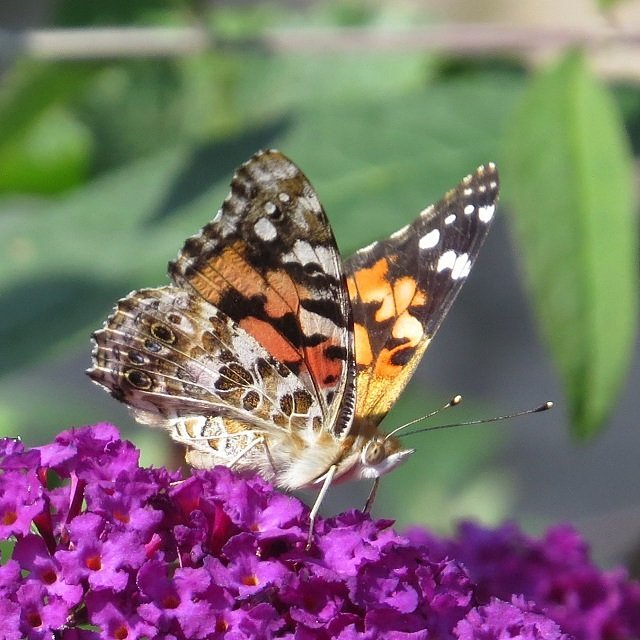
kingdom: Animalia
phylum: Arthropoda
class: Insecta
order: Lepidoptera
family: Nymphalidae
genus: Vanessa
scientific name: Vanessa cardui
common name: Painted Lady
